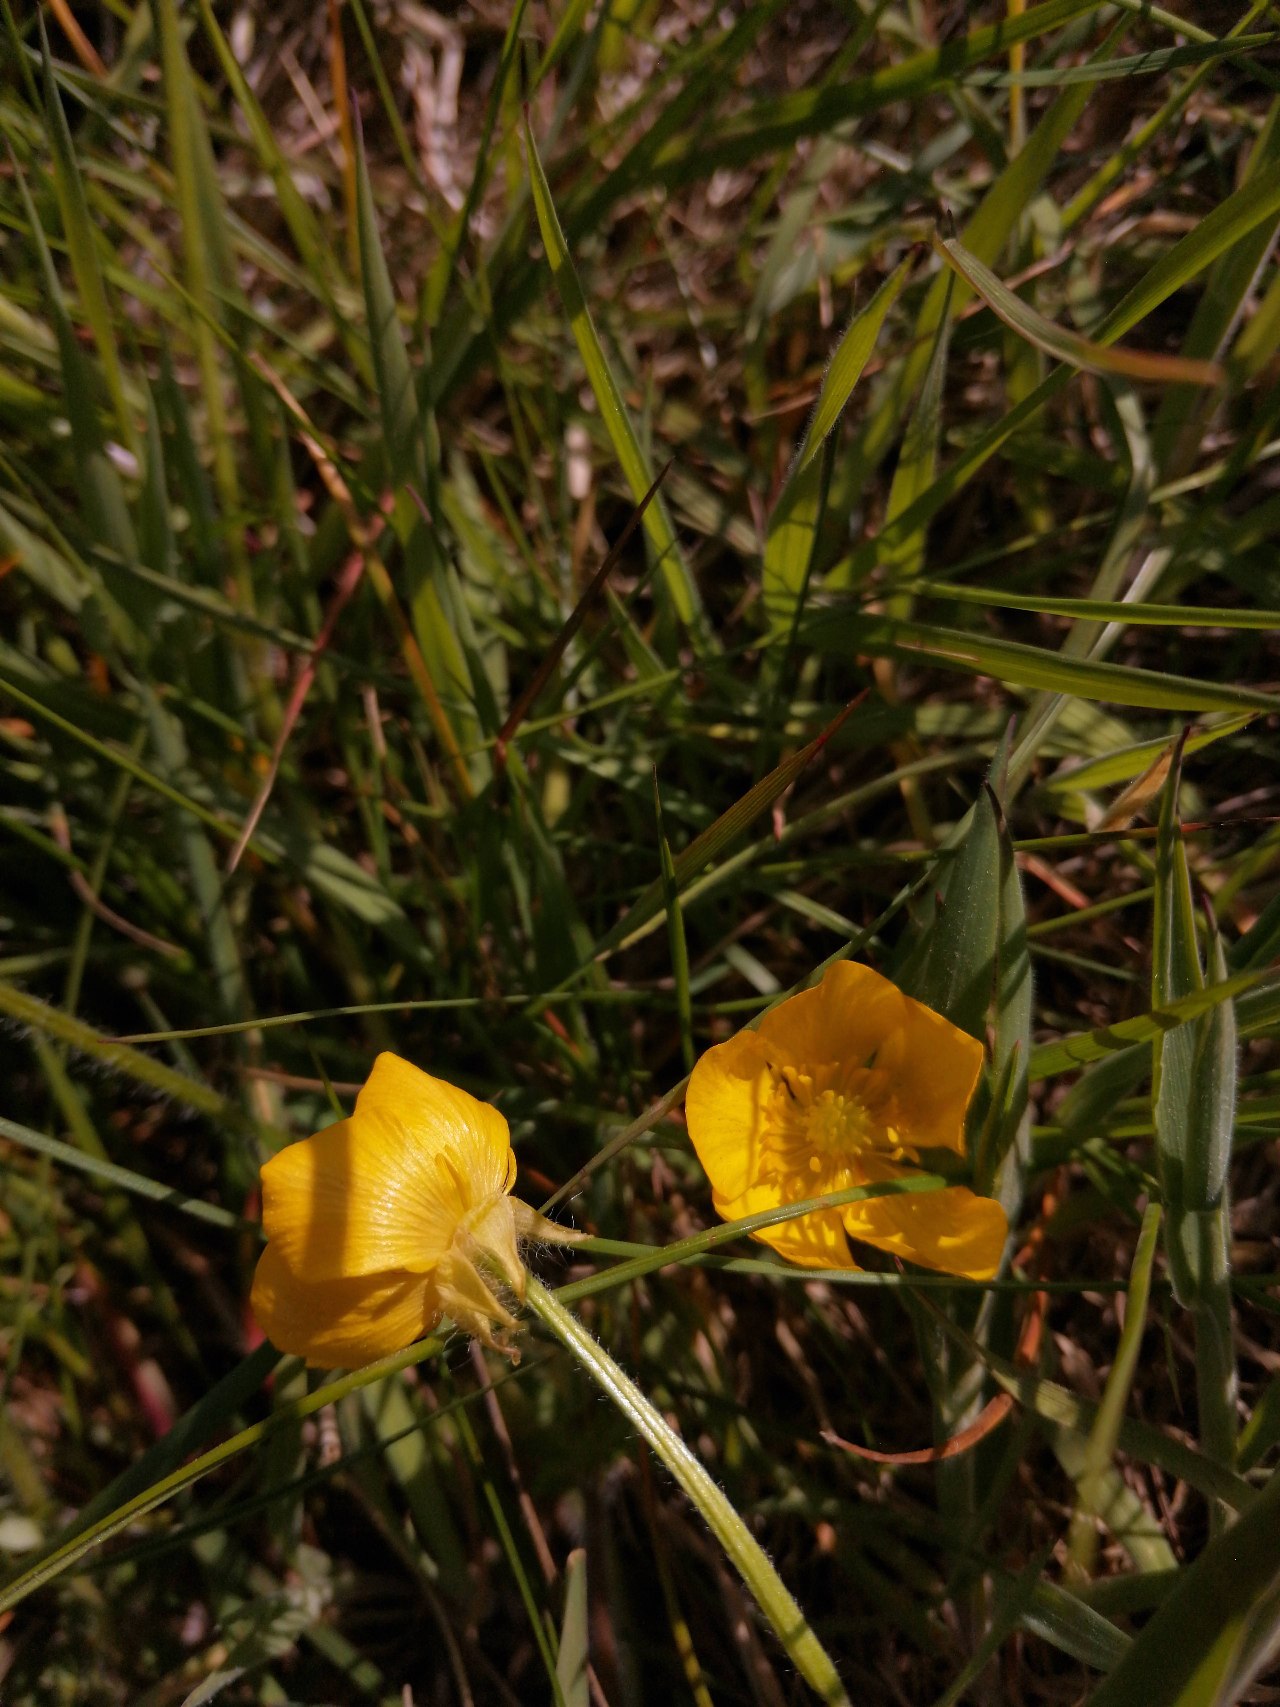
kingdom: Plantae
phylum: Tracheophyta
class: Magnoliopsida
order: Ranunculales
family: Ranunculaceae
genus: Ranunculus
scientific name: Ranunculus bulbosus
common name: Knold-ranunkel
